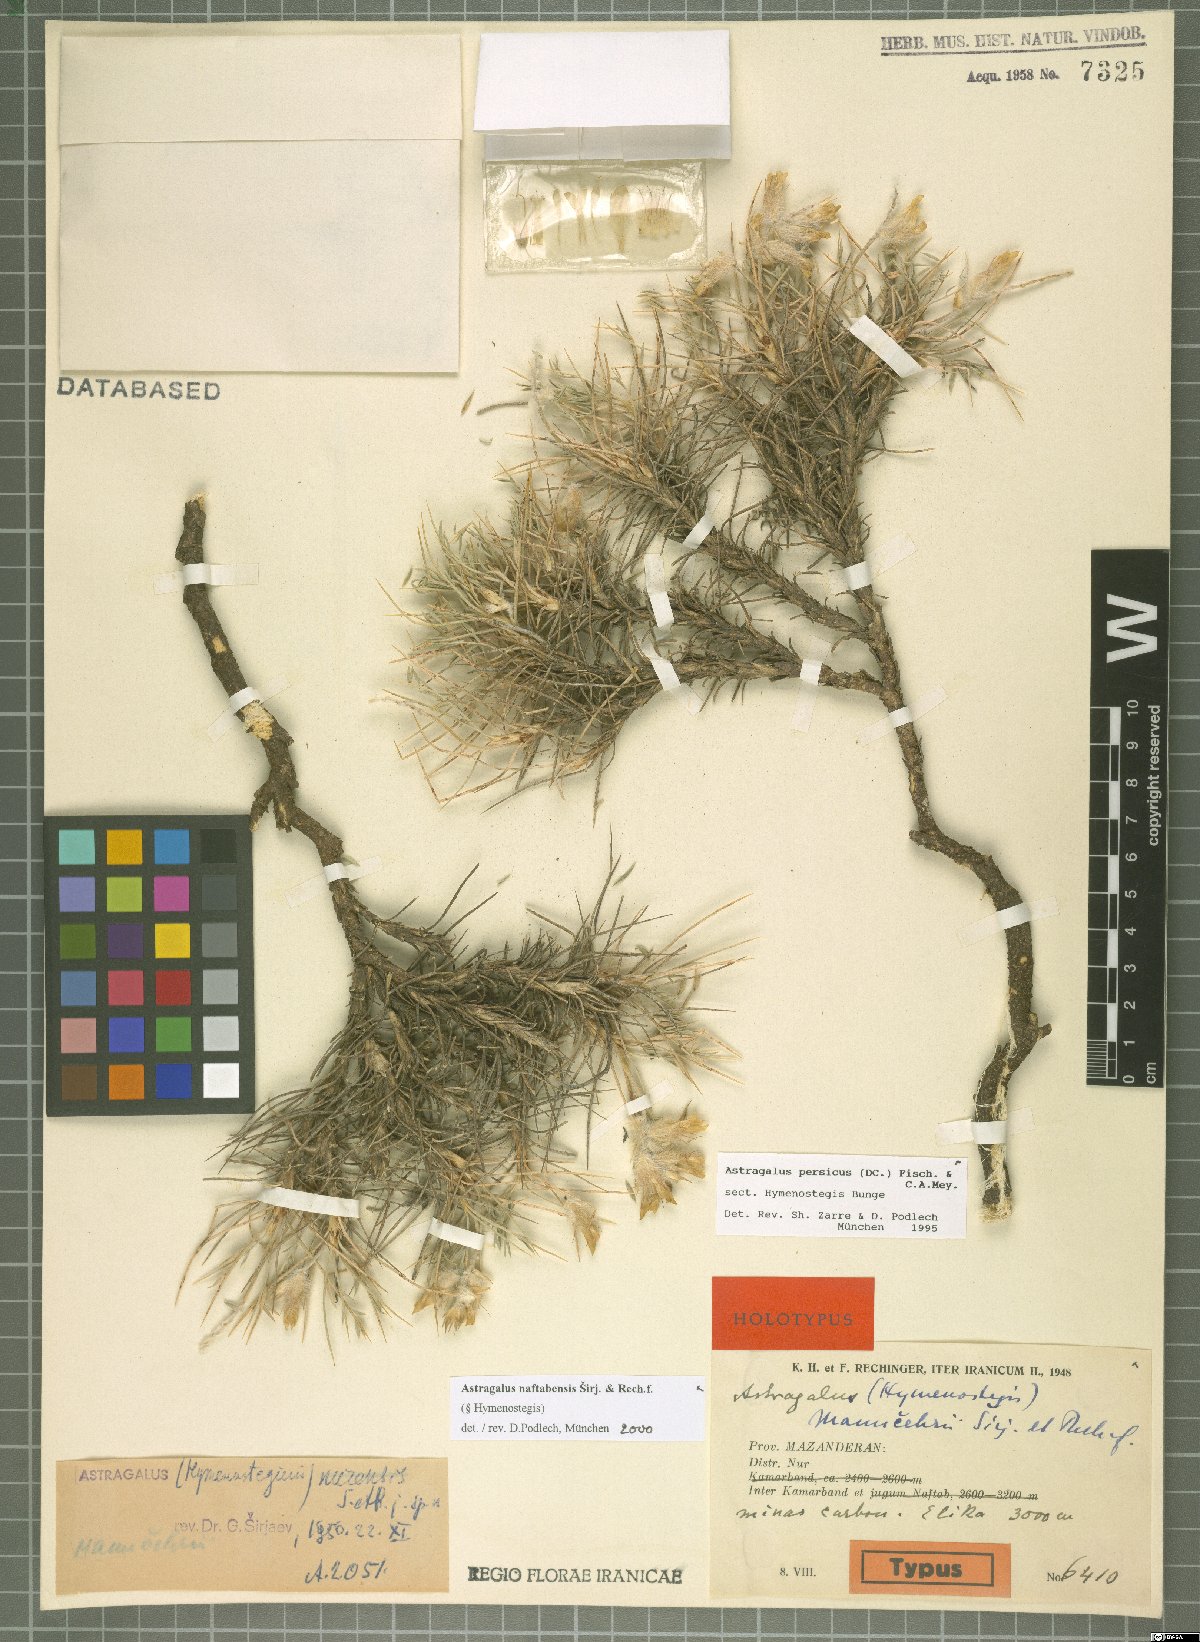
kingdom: Plantae
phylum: Tracheophyta
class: Magnoliopsida
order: Fabales
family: Fabaceae
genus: Astragalus
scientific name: Astragalus naftabensis
